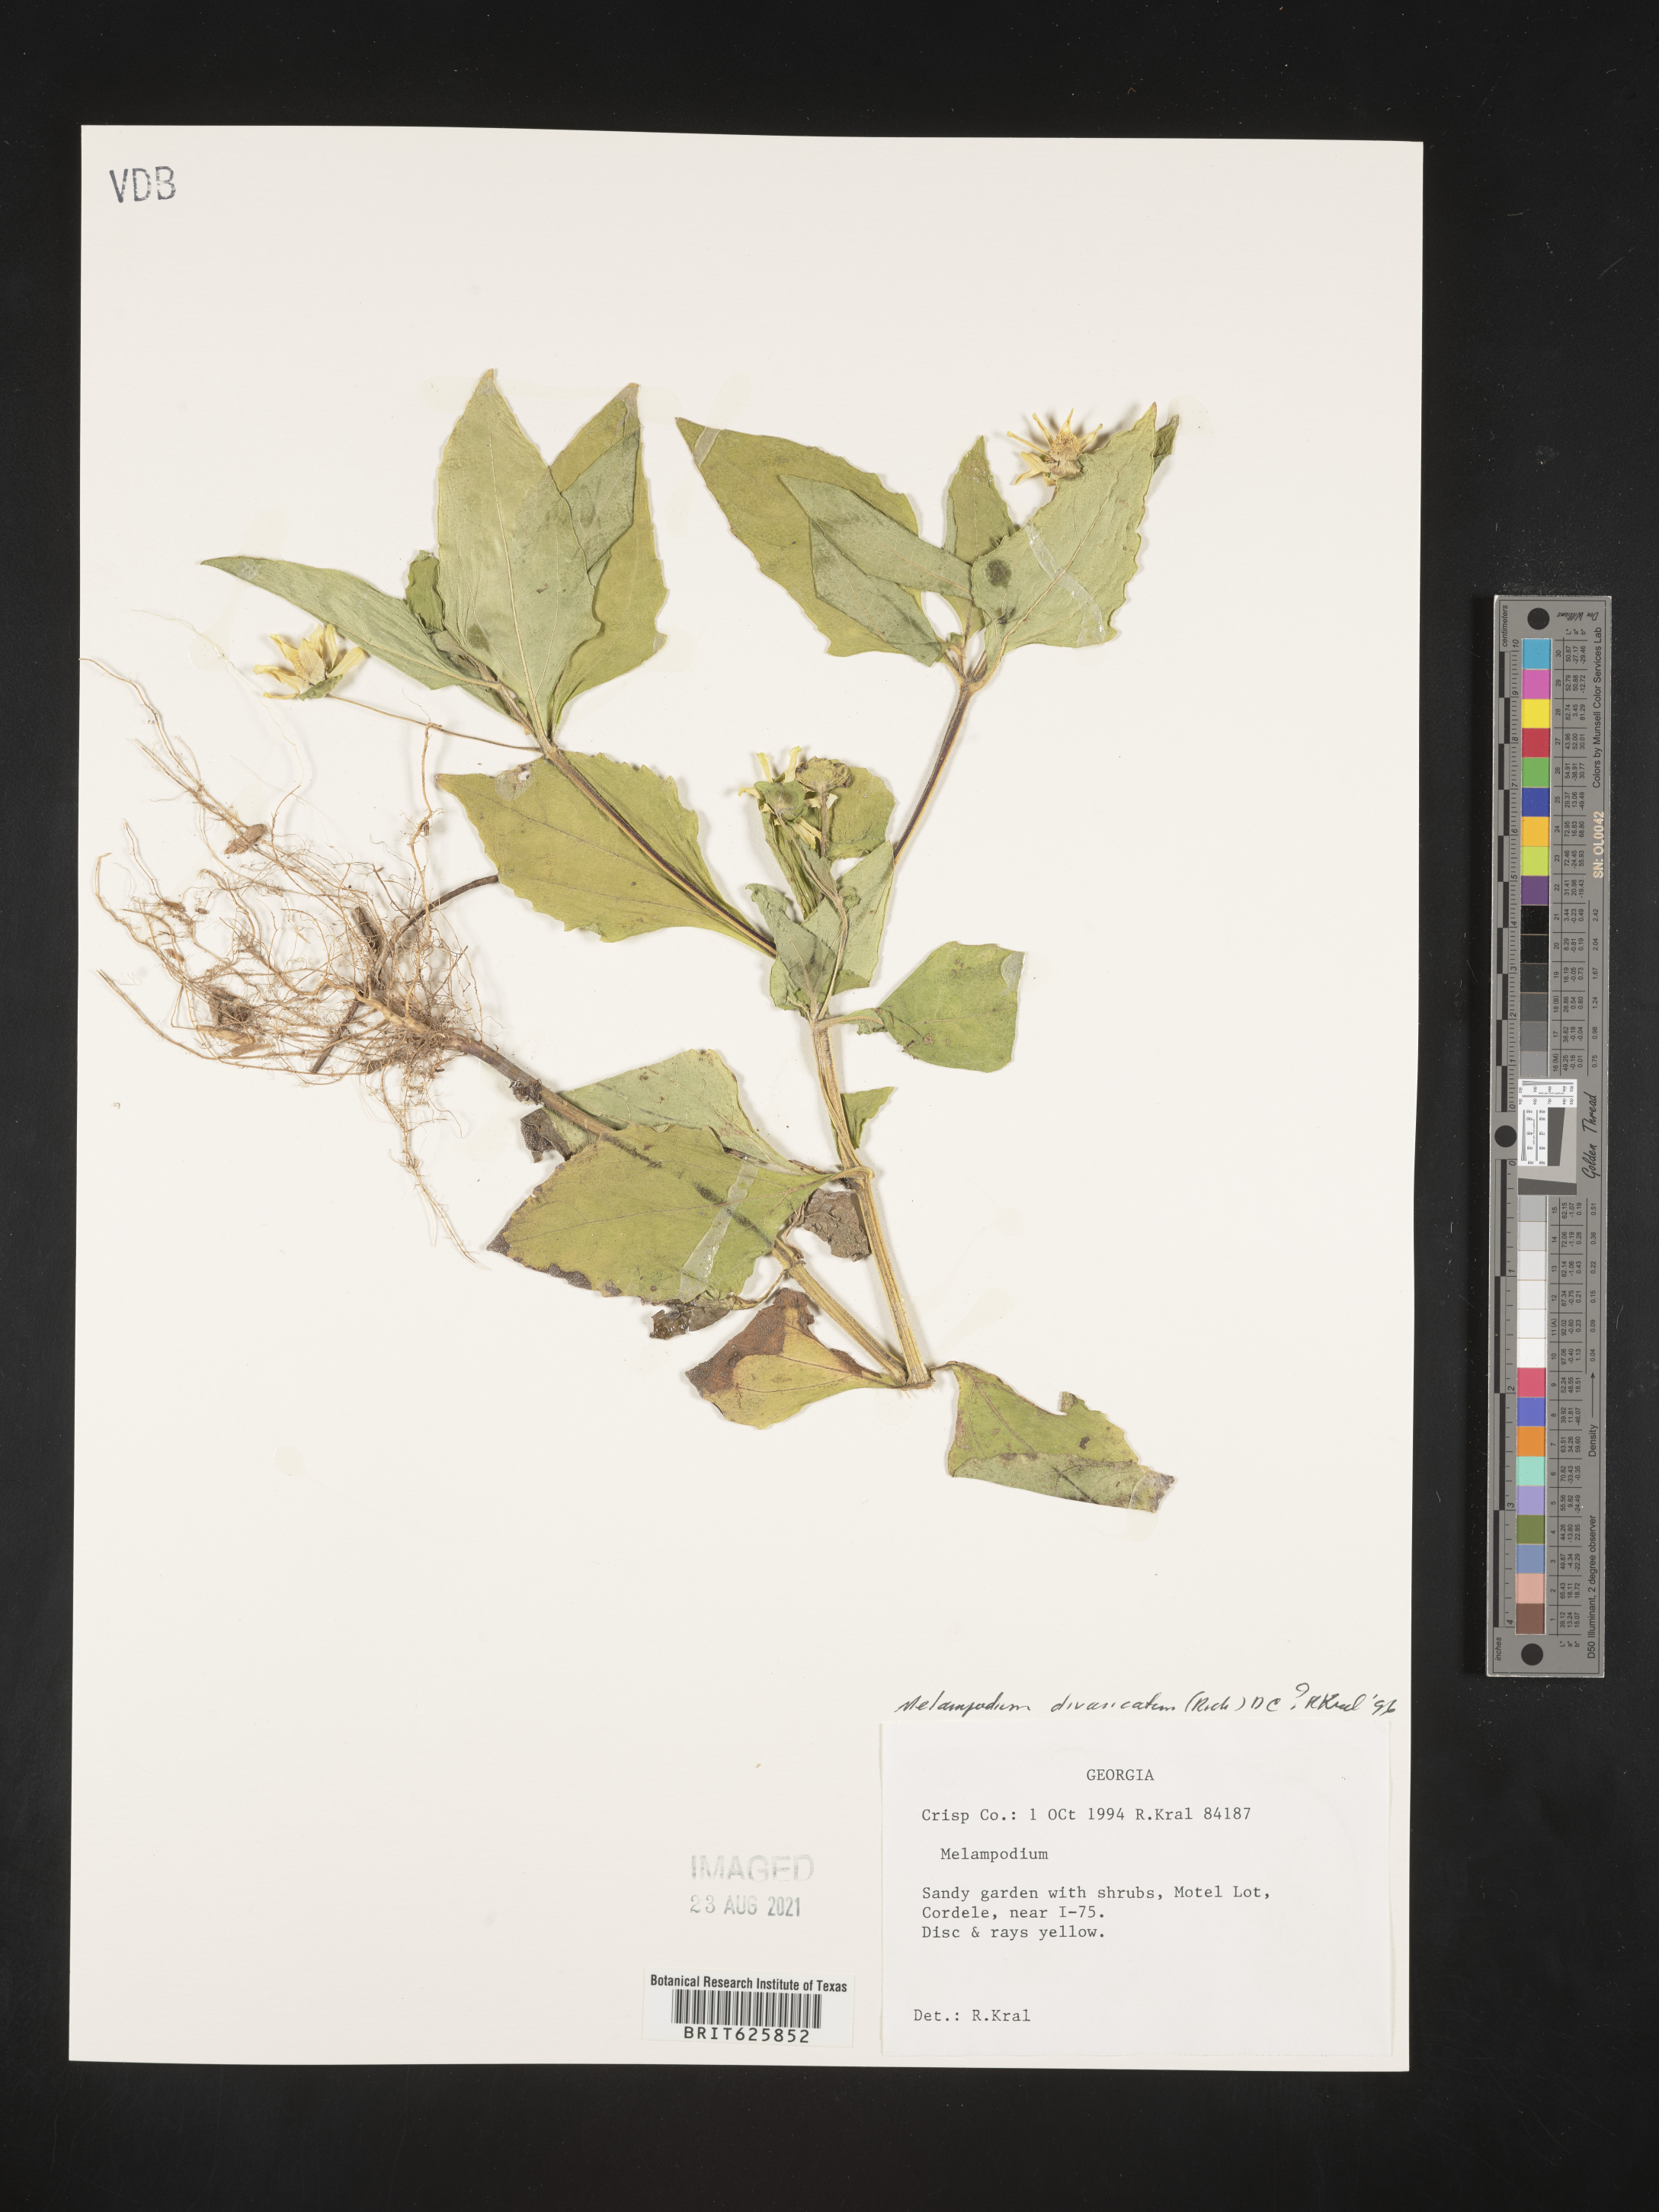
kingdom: Plantae
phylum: Tracheophyta
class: Magnoliopsida
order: Asterales
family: Asteraceae
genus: Melampodium
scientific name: Melampodium divaricatum
